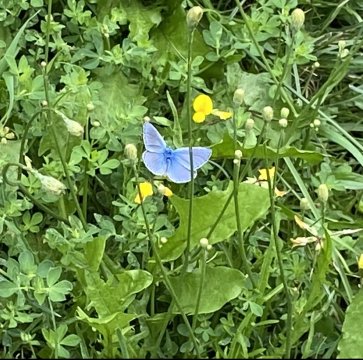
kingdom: Animalia
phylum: Arthropoda
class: Insecta
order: Lepidoptera
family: Lycaenidae
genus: Polyommatus
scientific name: Polyommatus icarus
